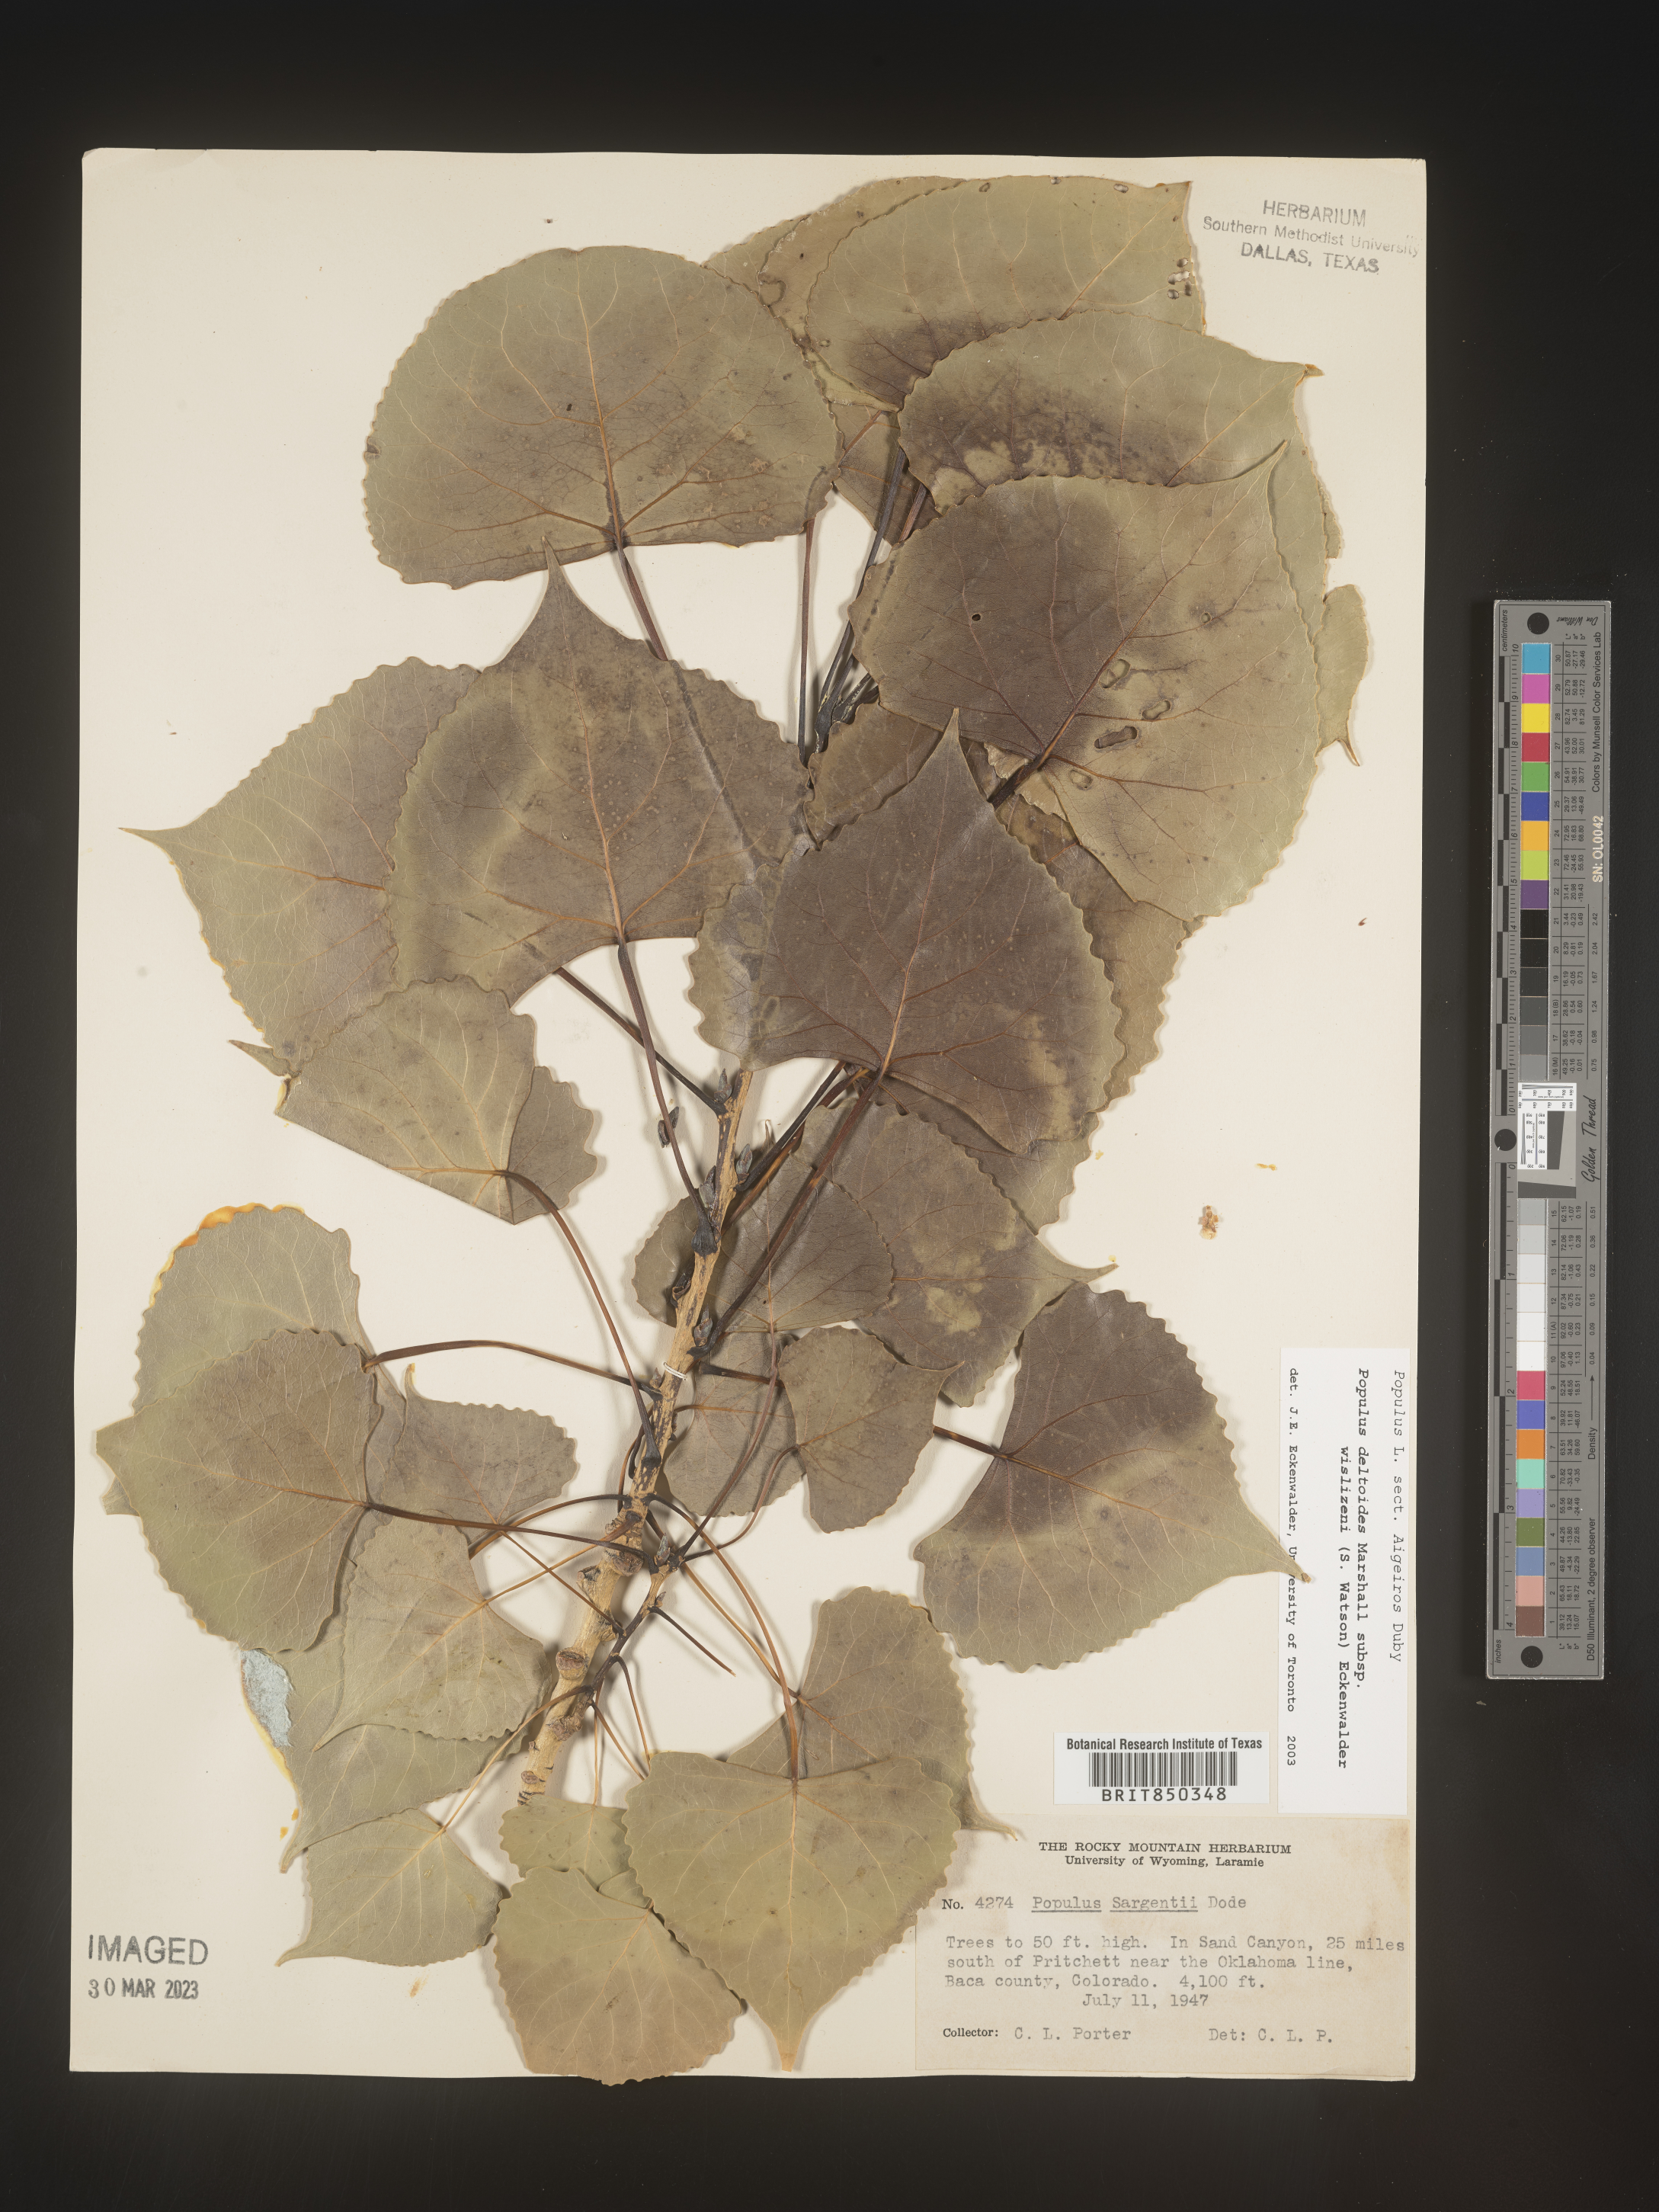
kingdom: Plantae
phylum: Tracheophyta
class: Magnoliopsida
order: Malpighiales
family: Salicaceae
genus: Populus
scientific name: Populus deltoides
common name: Eastern cottonwood
